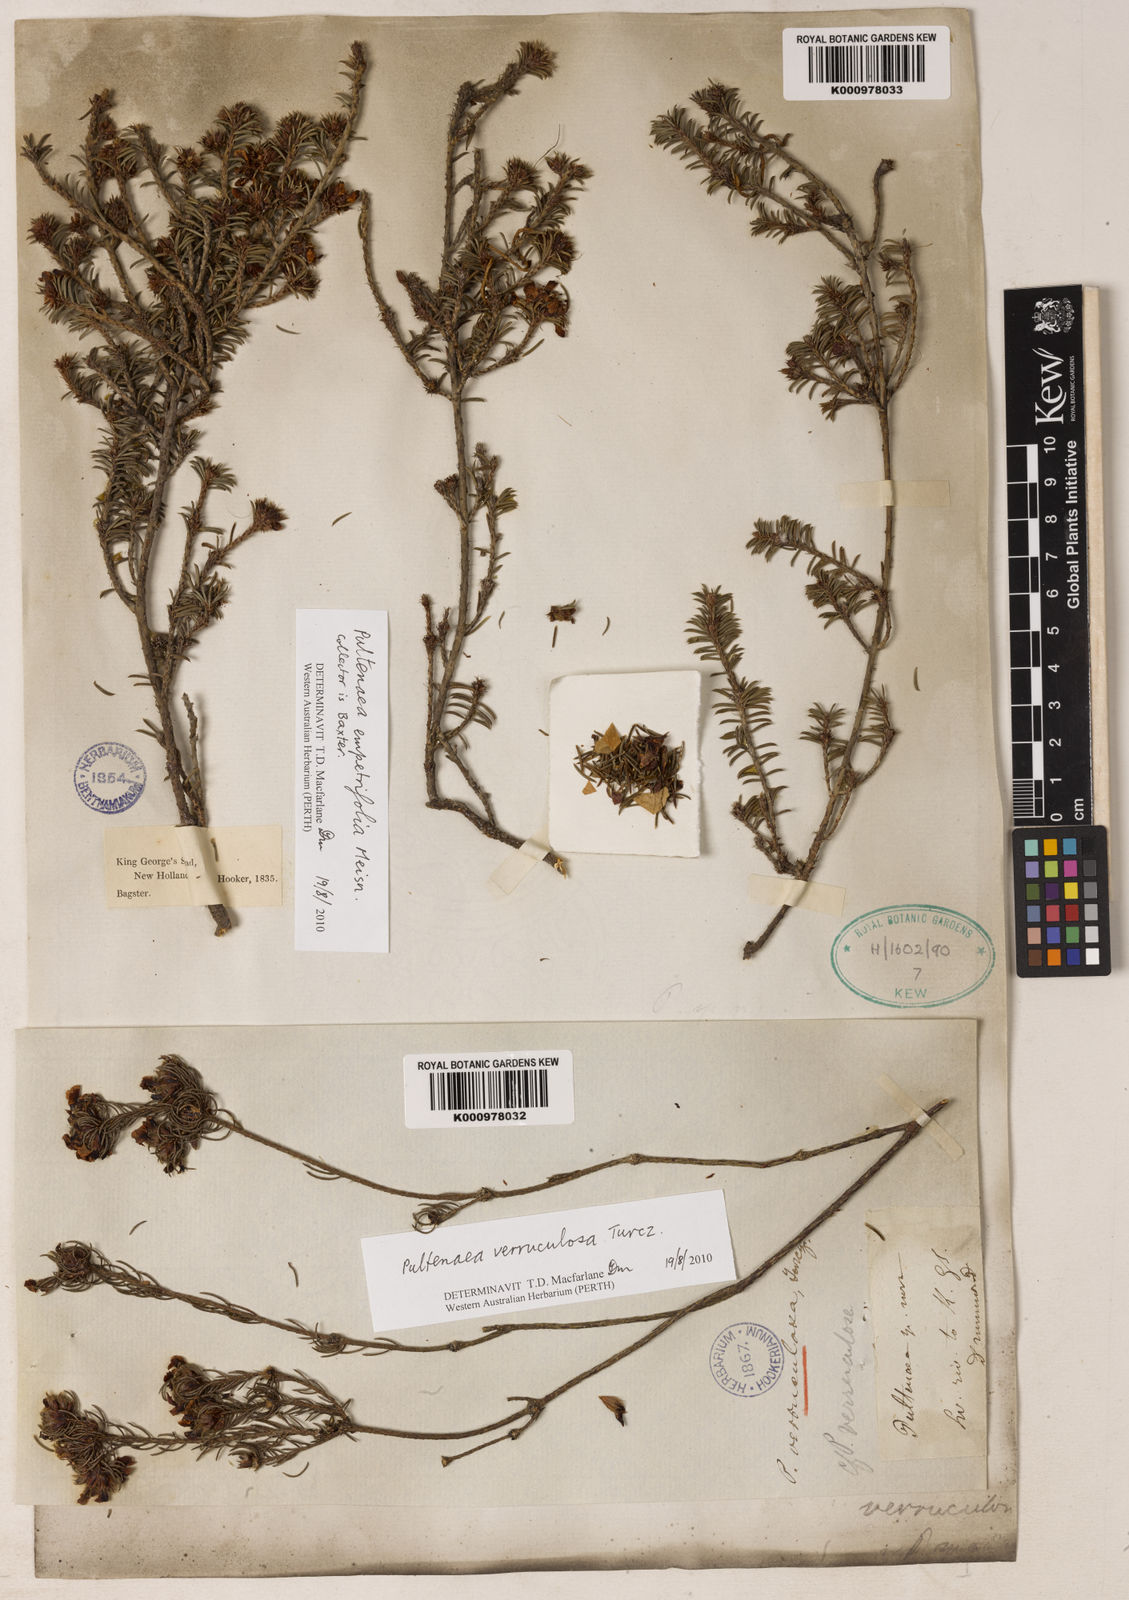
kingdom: Plantae
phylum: Tracheophyta
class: Magnoliopsida
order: Fabales
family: Fabaceae
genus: Pultenaea
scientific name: Pultenaea verruculosa
